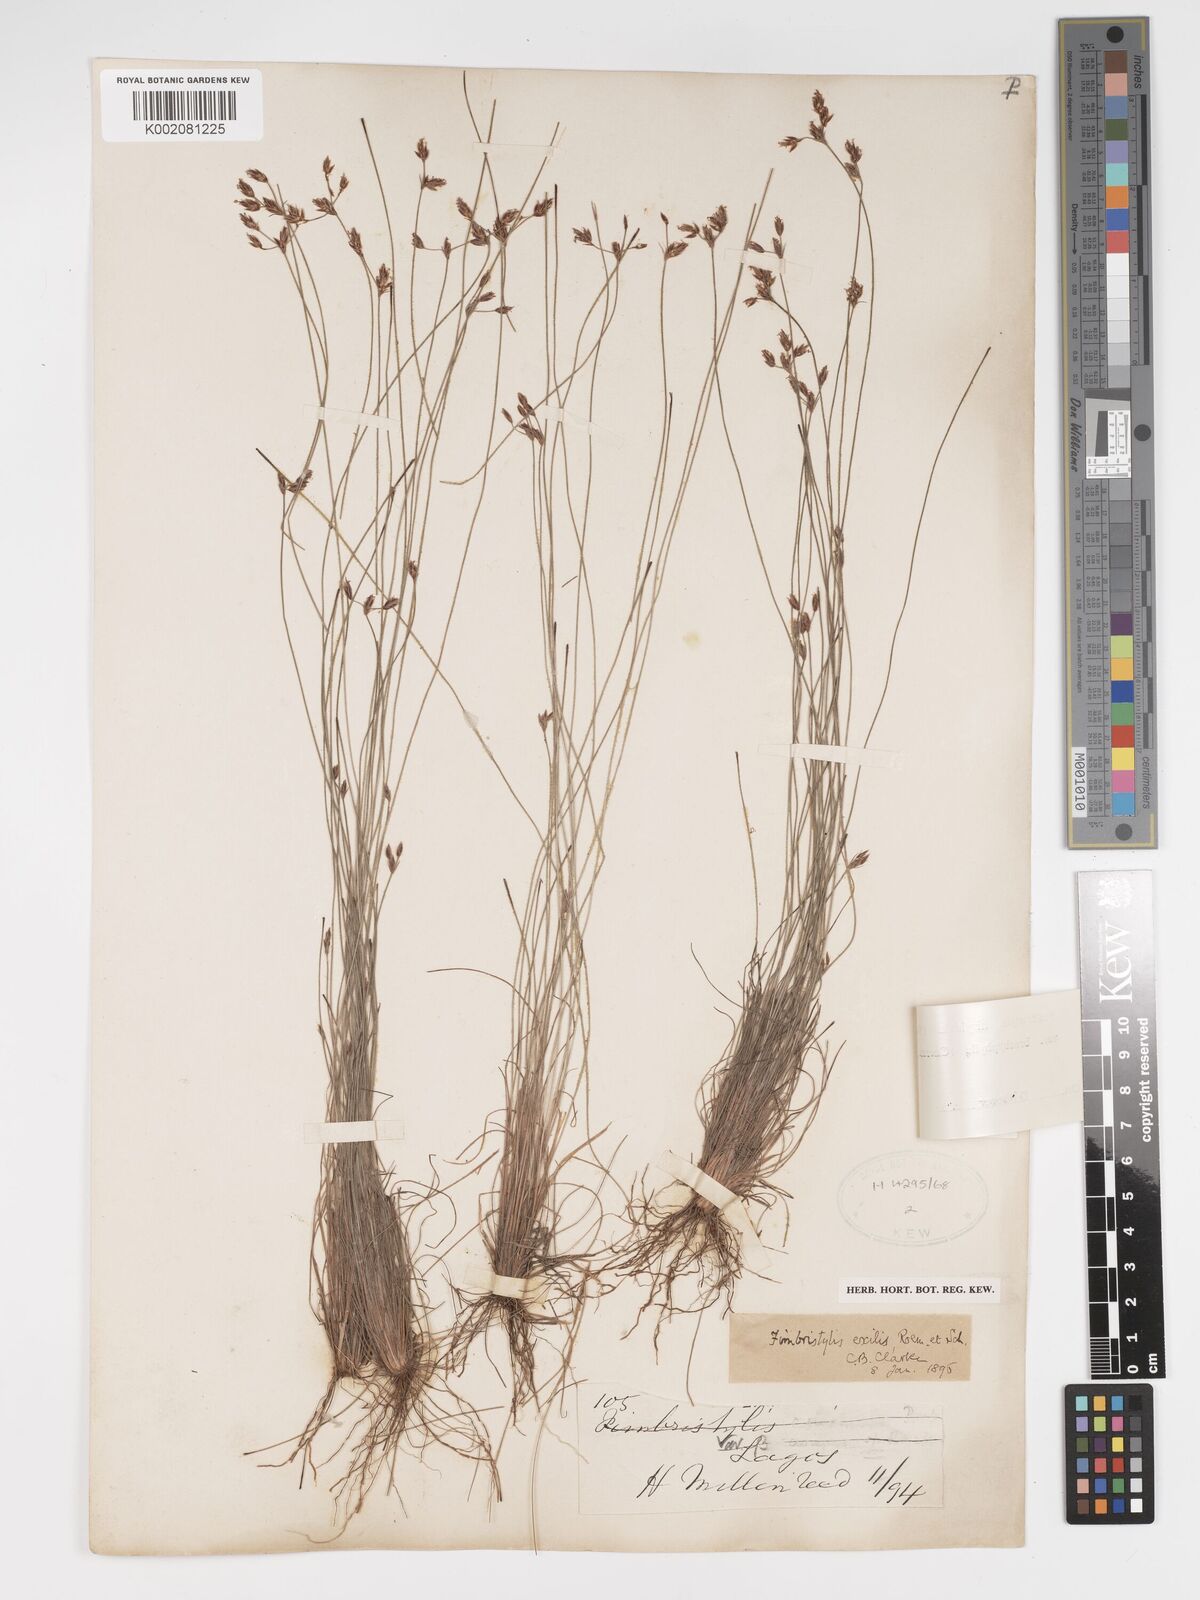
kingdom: Plantae
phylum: Tracheophyta
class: Liliopsida
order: Poales
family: Cyperaceae
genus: Bulbostylis
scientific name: Bulbostylis hispidula
